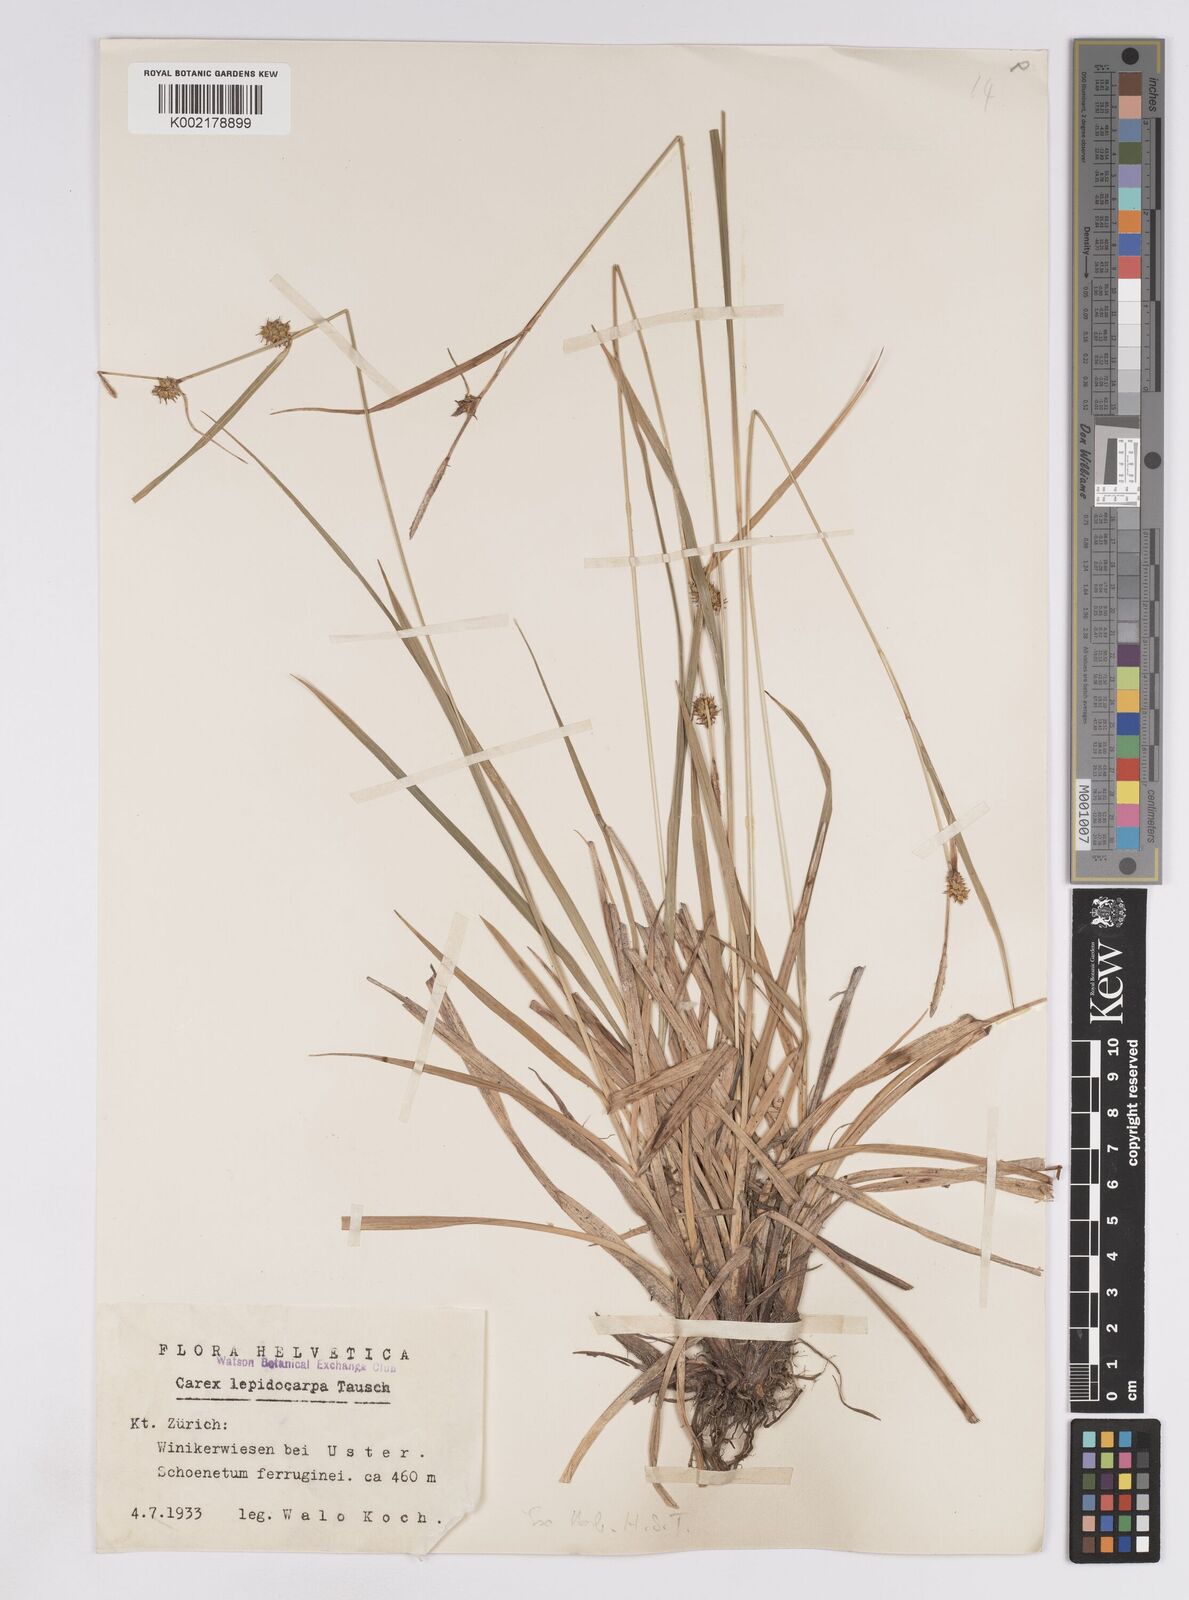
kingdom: Plantae
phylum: Tracheophyta
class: Liliopsida
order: Poales
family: Cyperaceae
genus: Carex
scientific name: Carex lepidocarpa
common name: Long-stalked yellow-sedge
